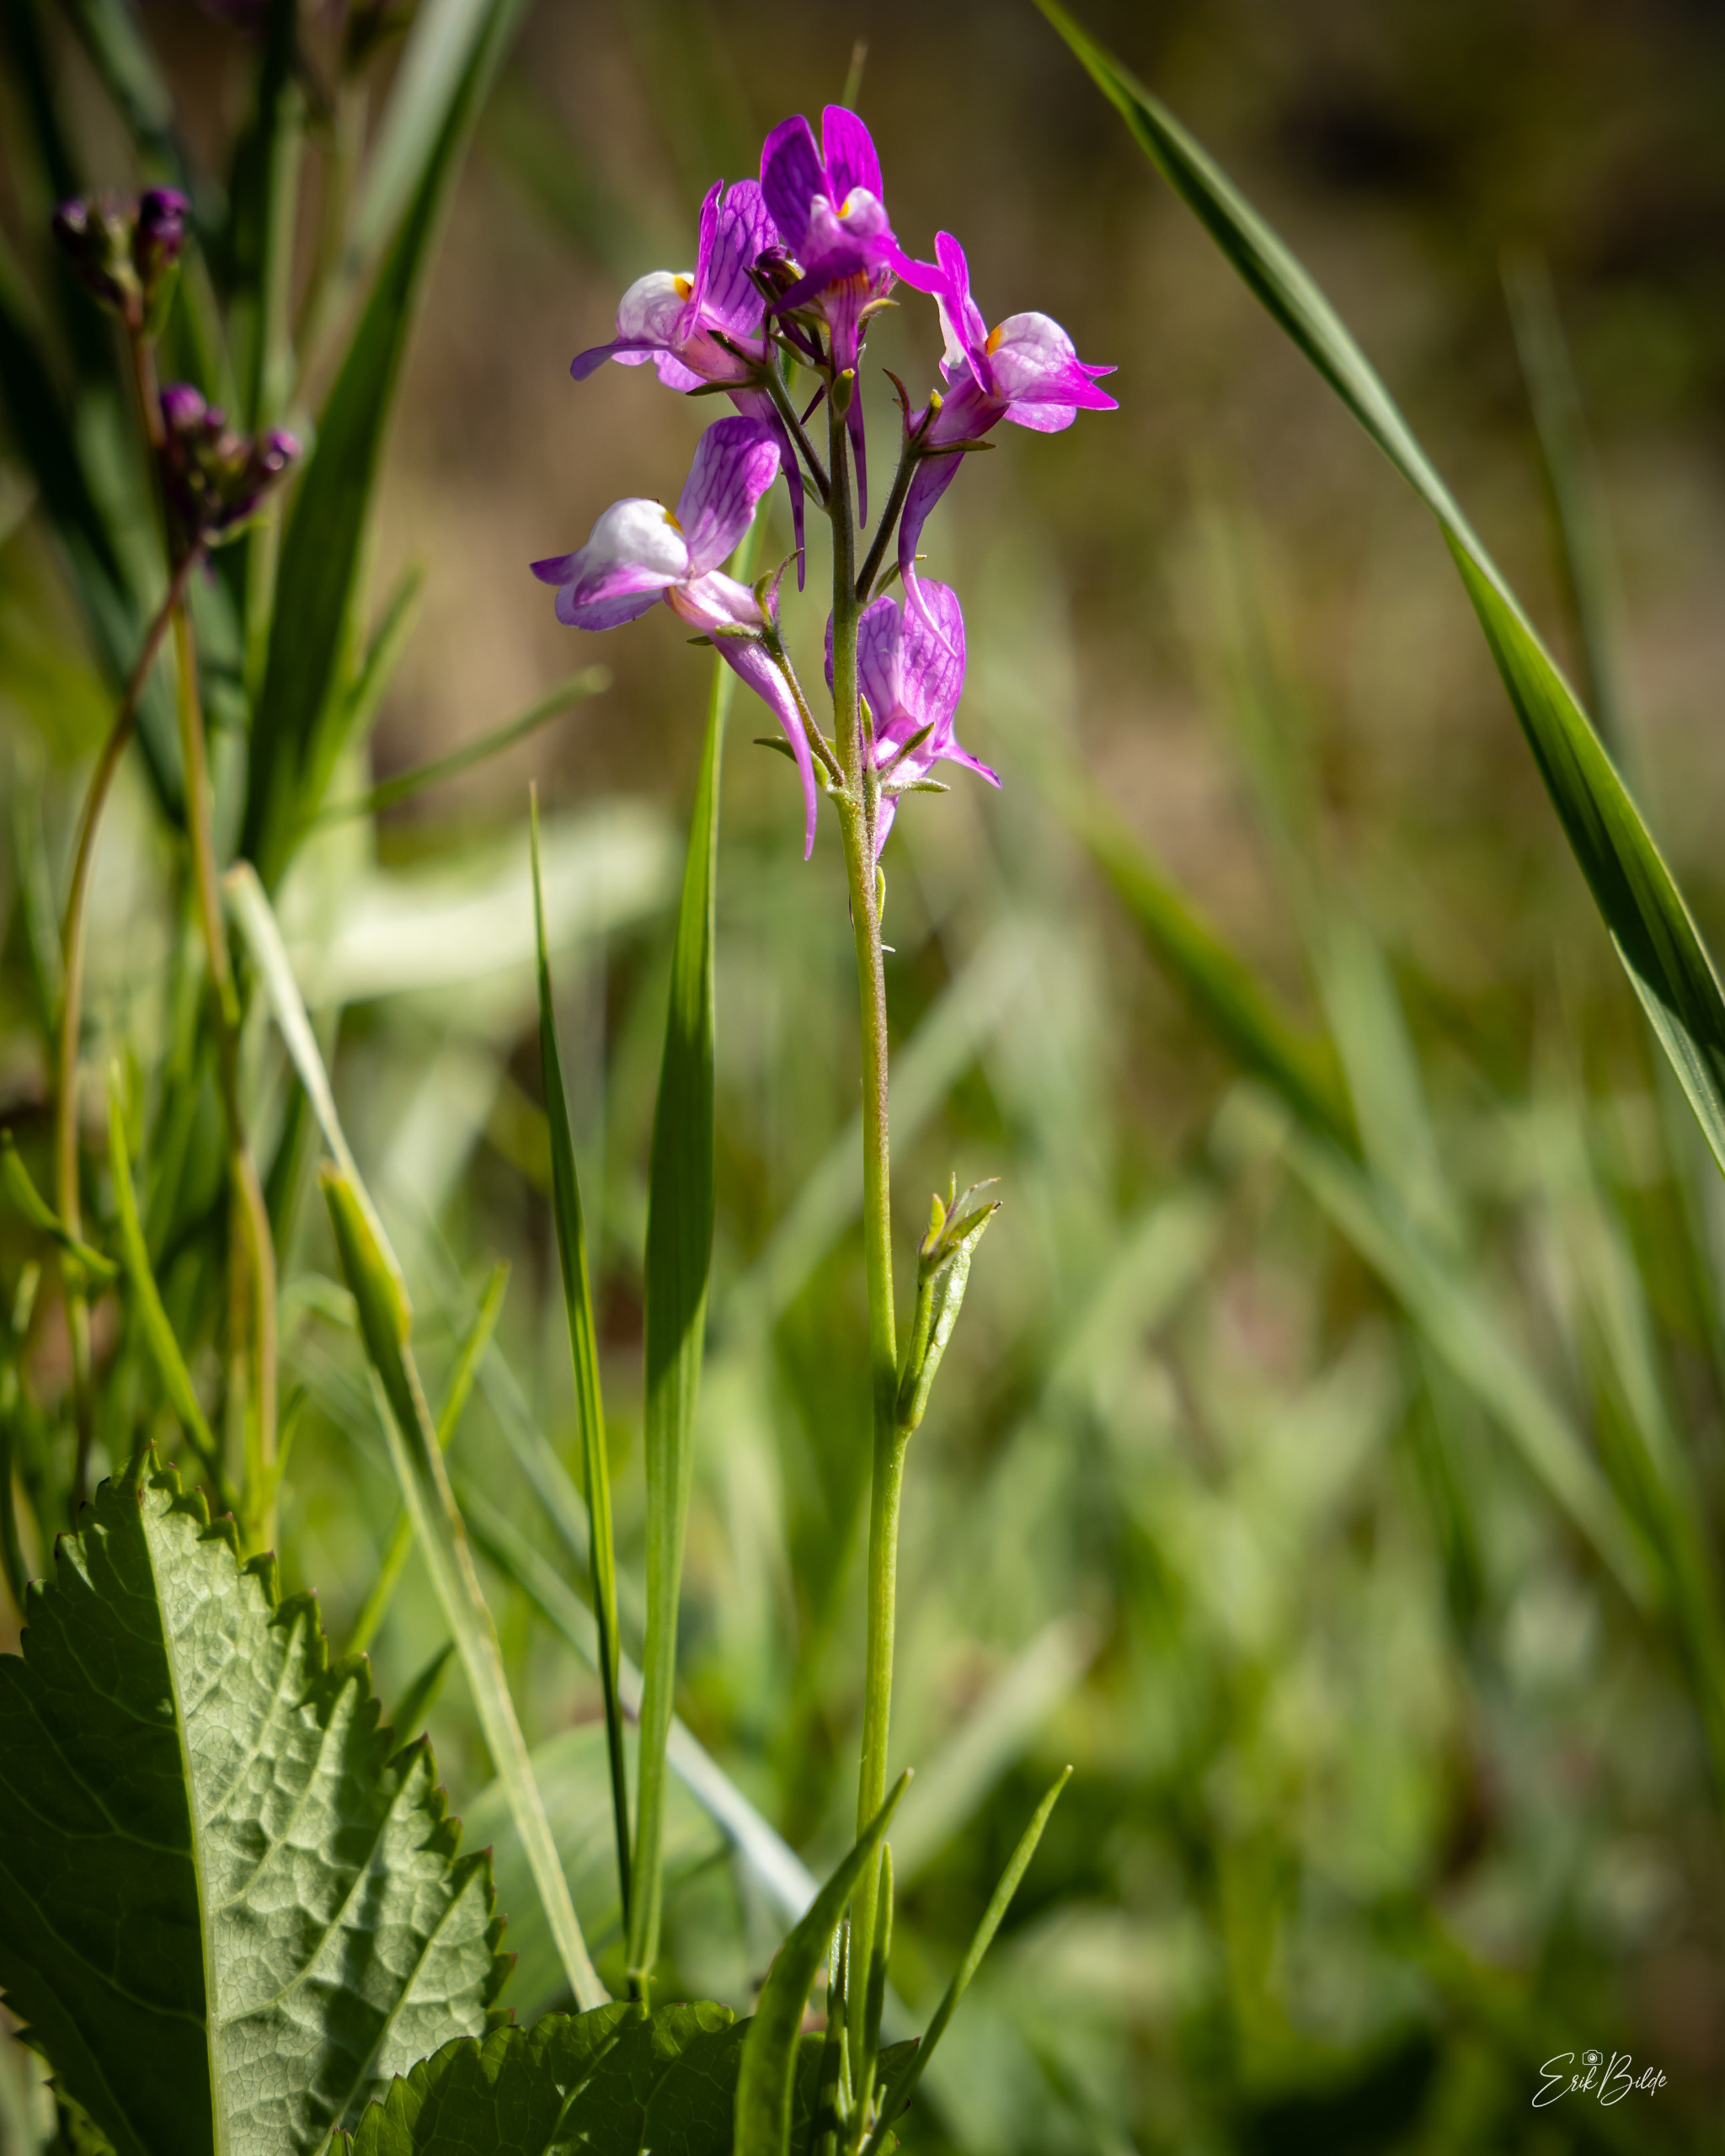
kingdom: Plantae
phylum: Tracheophyta
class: Magnoliopsida
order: Lamiales
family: Plantaginaceae
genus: Linaria
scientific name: Linaria maroccana
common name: Marokkansk torskemund
